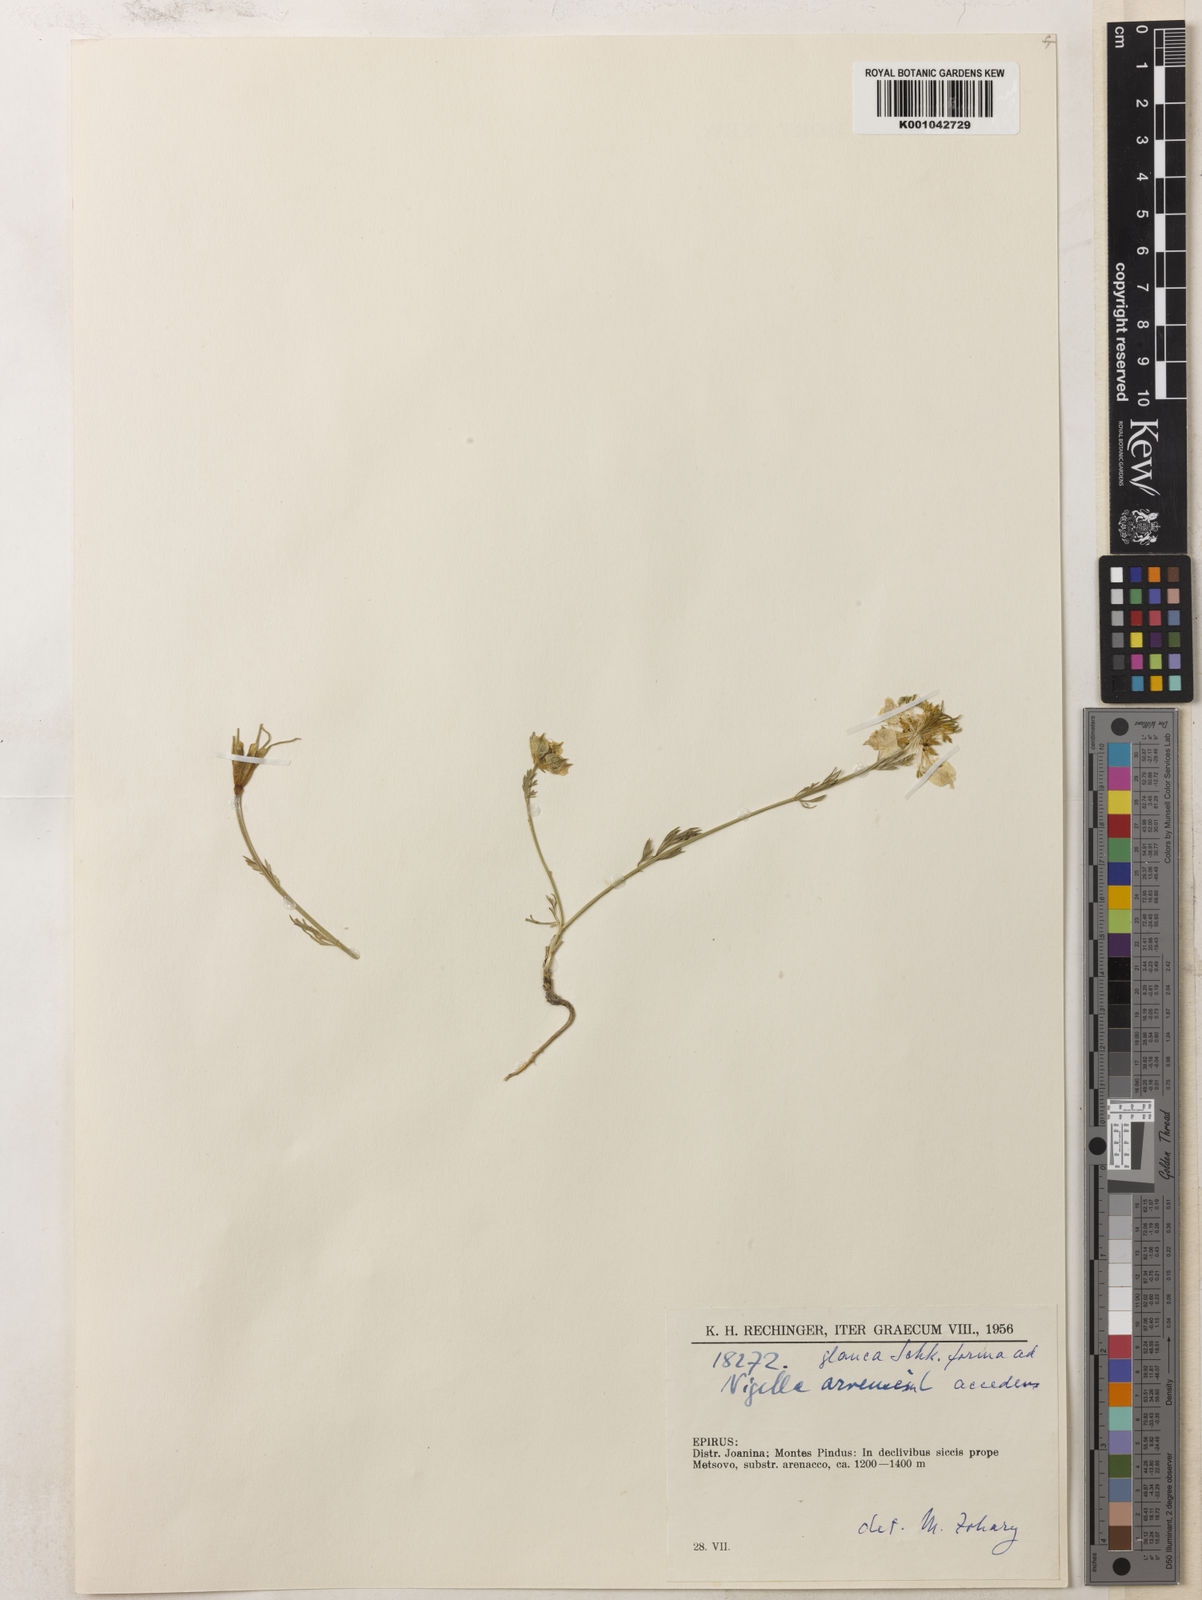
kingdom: Plantae
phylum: Tracheophyta
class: Magnoliopsida
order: Ranunculales
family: Ranunculaceae
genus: Nigella
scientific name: Nigella arvensis
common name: Wild fennel-flower
